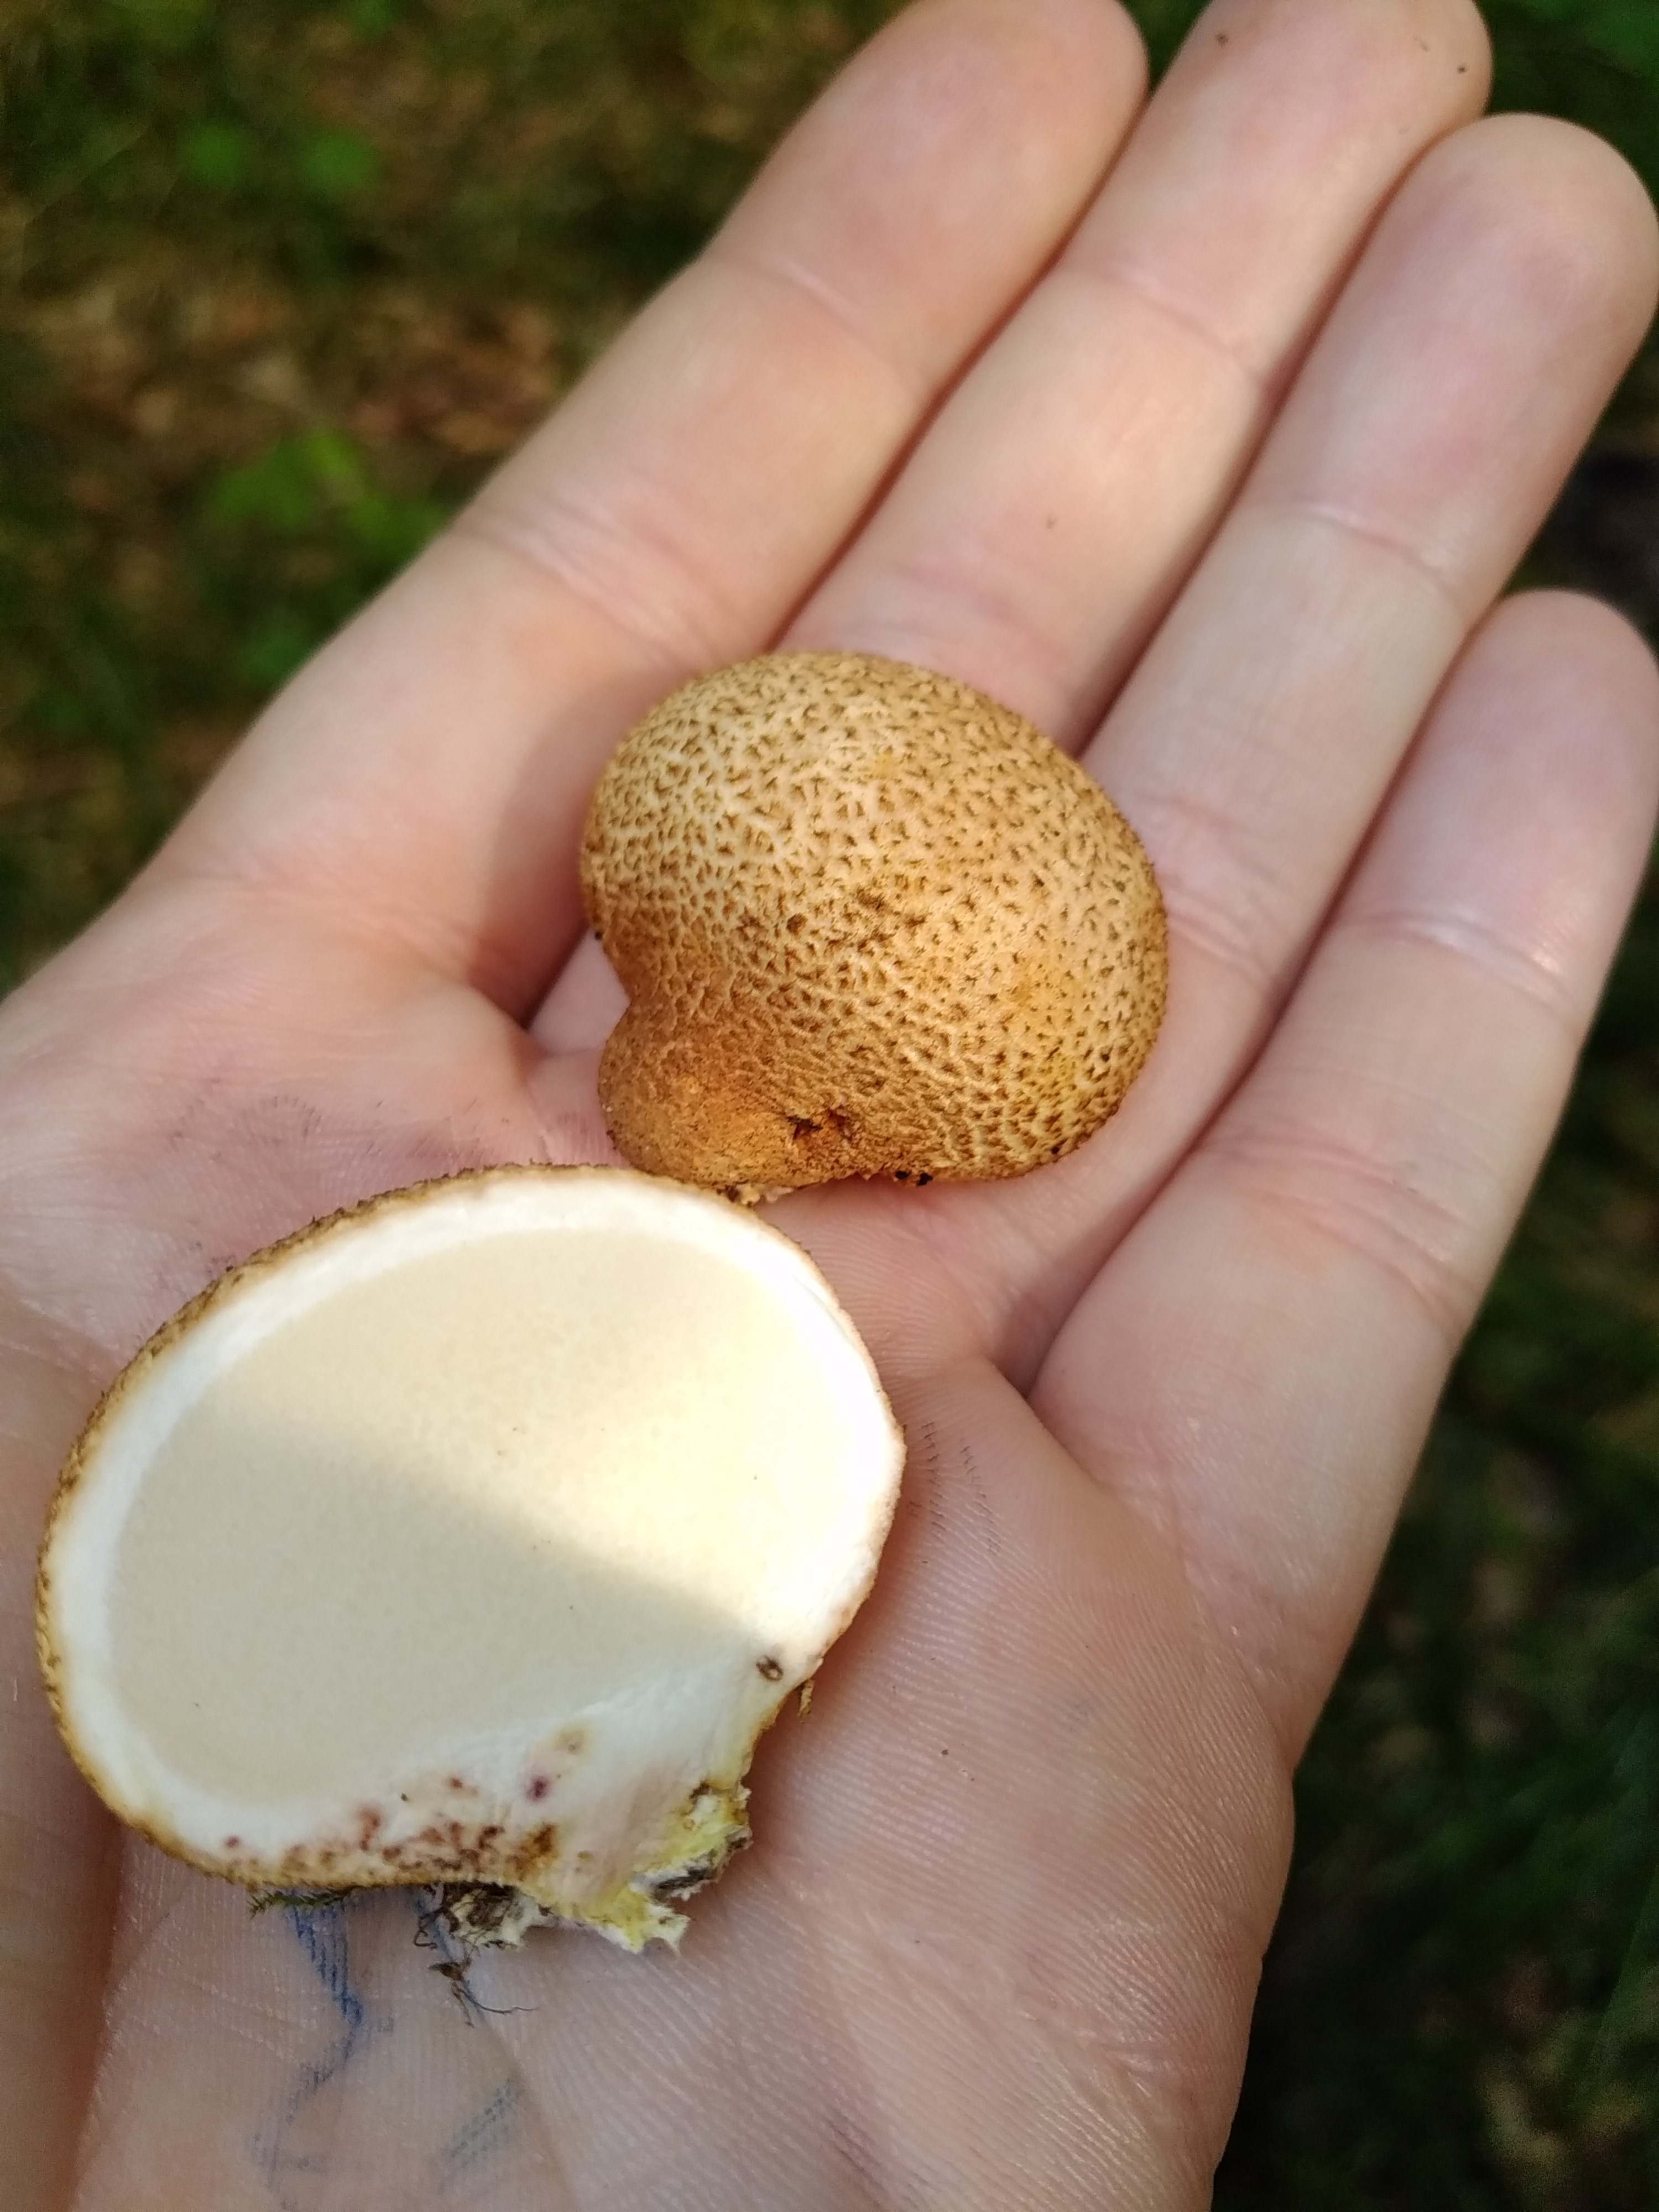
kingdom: Fungi
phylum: Basidiomycota
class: Agaricomycetes
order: Boletales
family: Sclerodermataceae
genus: Scleroderma
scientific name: Scleroderma citrinum
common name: almindelig bruskbold
